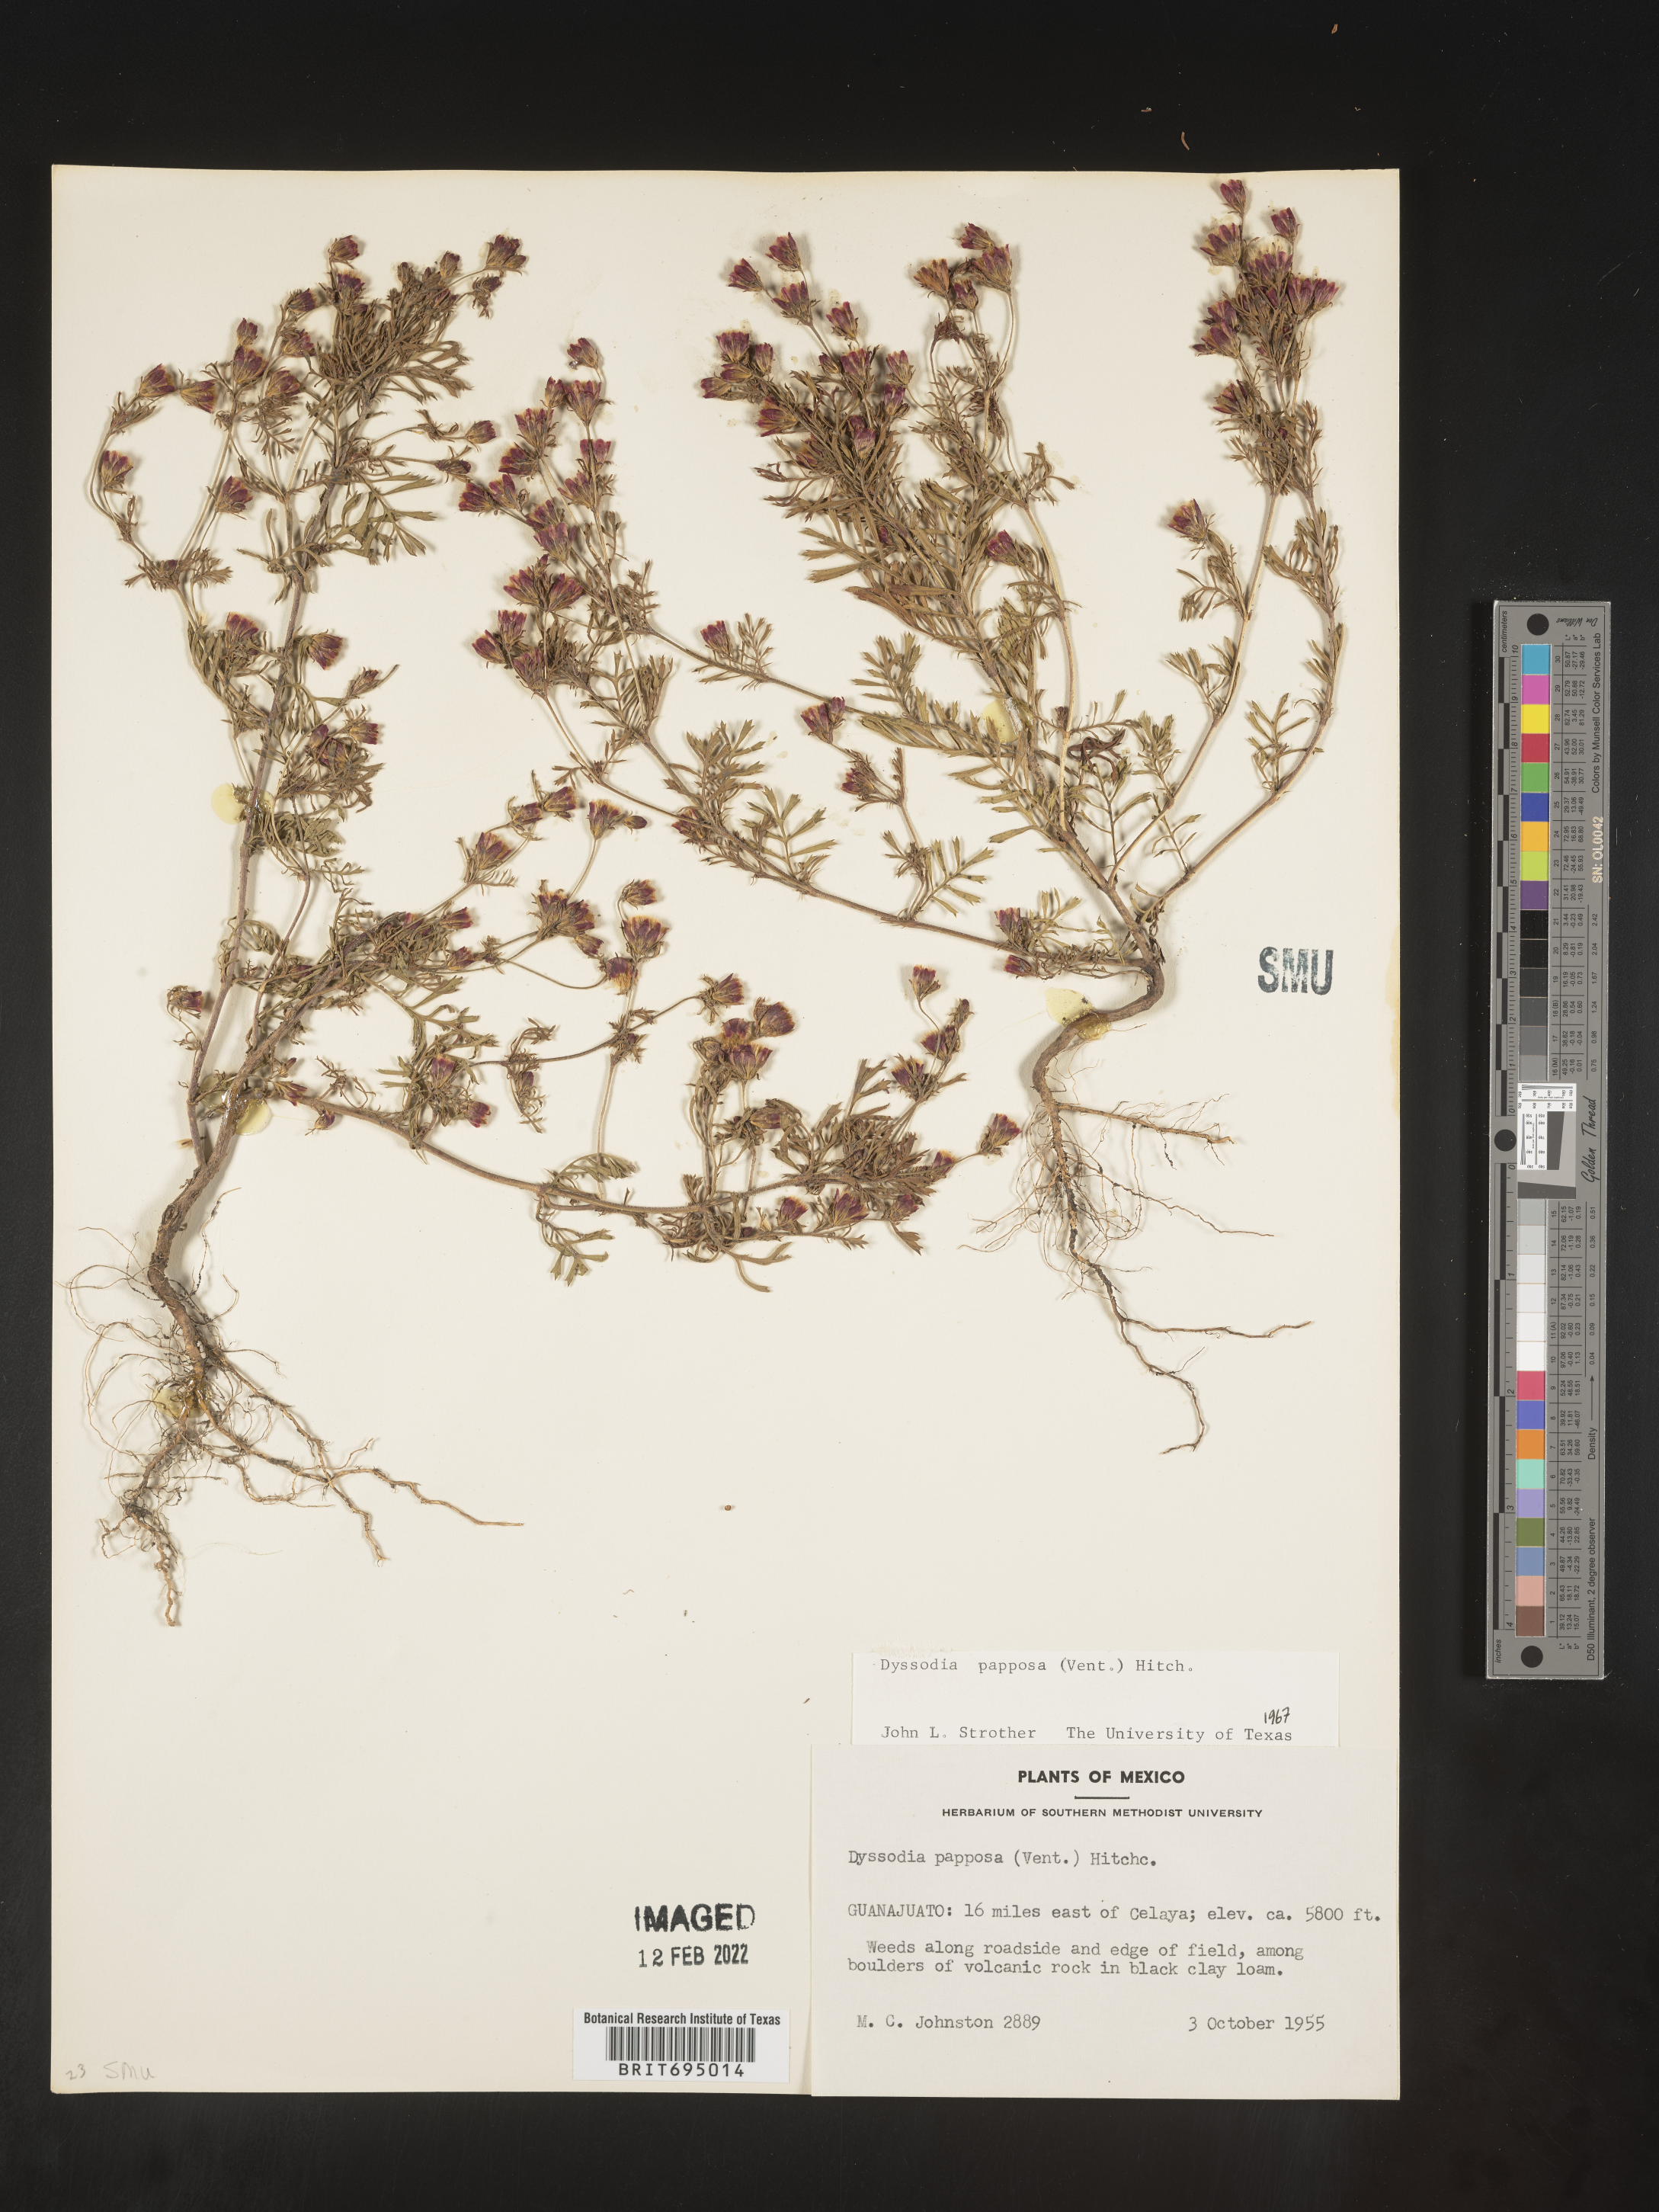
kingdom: Plantae
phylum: Tracheophyta
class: Magnoliopsida
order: Asterales
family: Asteraceae
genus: Dyssodia
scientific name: Dyssodia papposa
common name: Dogweed
